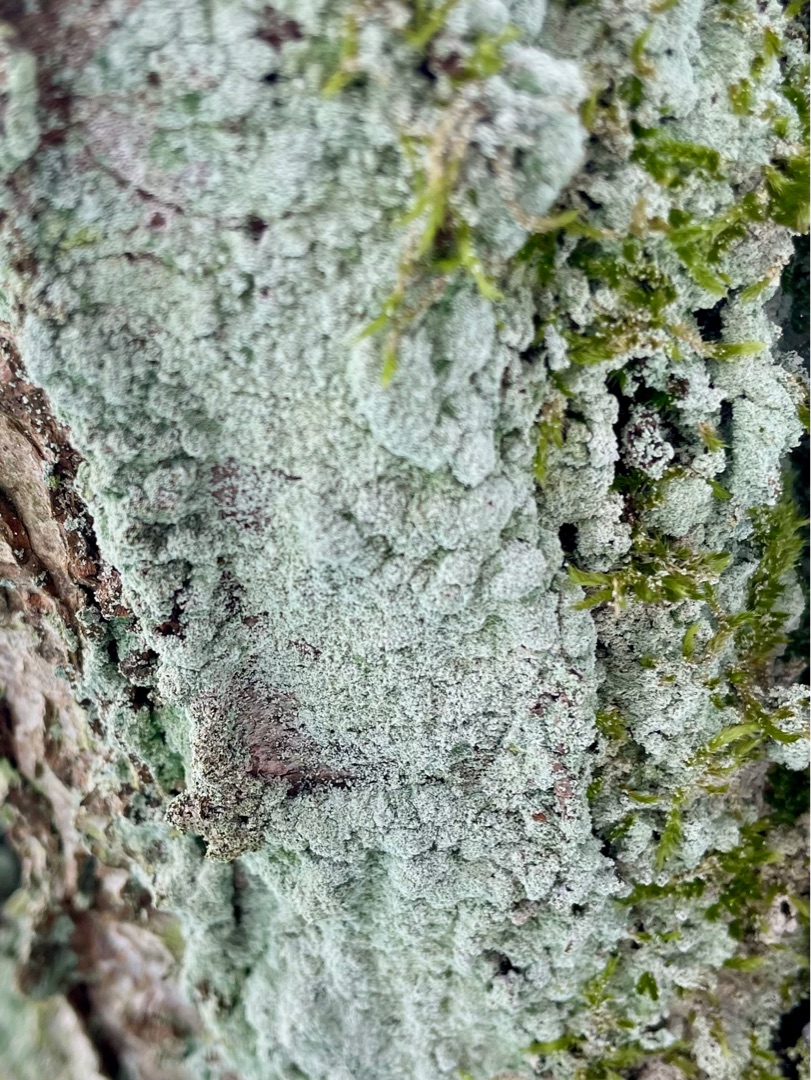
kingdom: Fungi
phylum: Ascomycota
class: Lecanoromycetes
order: Lecanorales
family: Stereocaulaceae
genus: Lepraria
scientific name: Lepraria incana
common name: Almindelig støvlav
